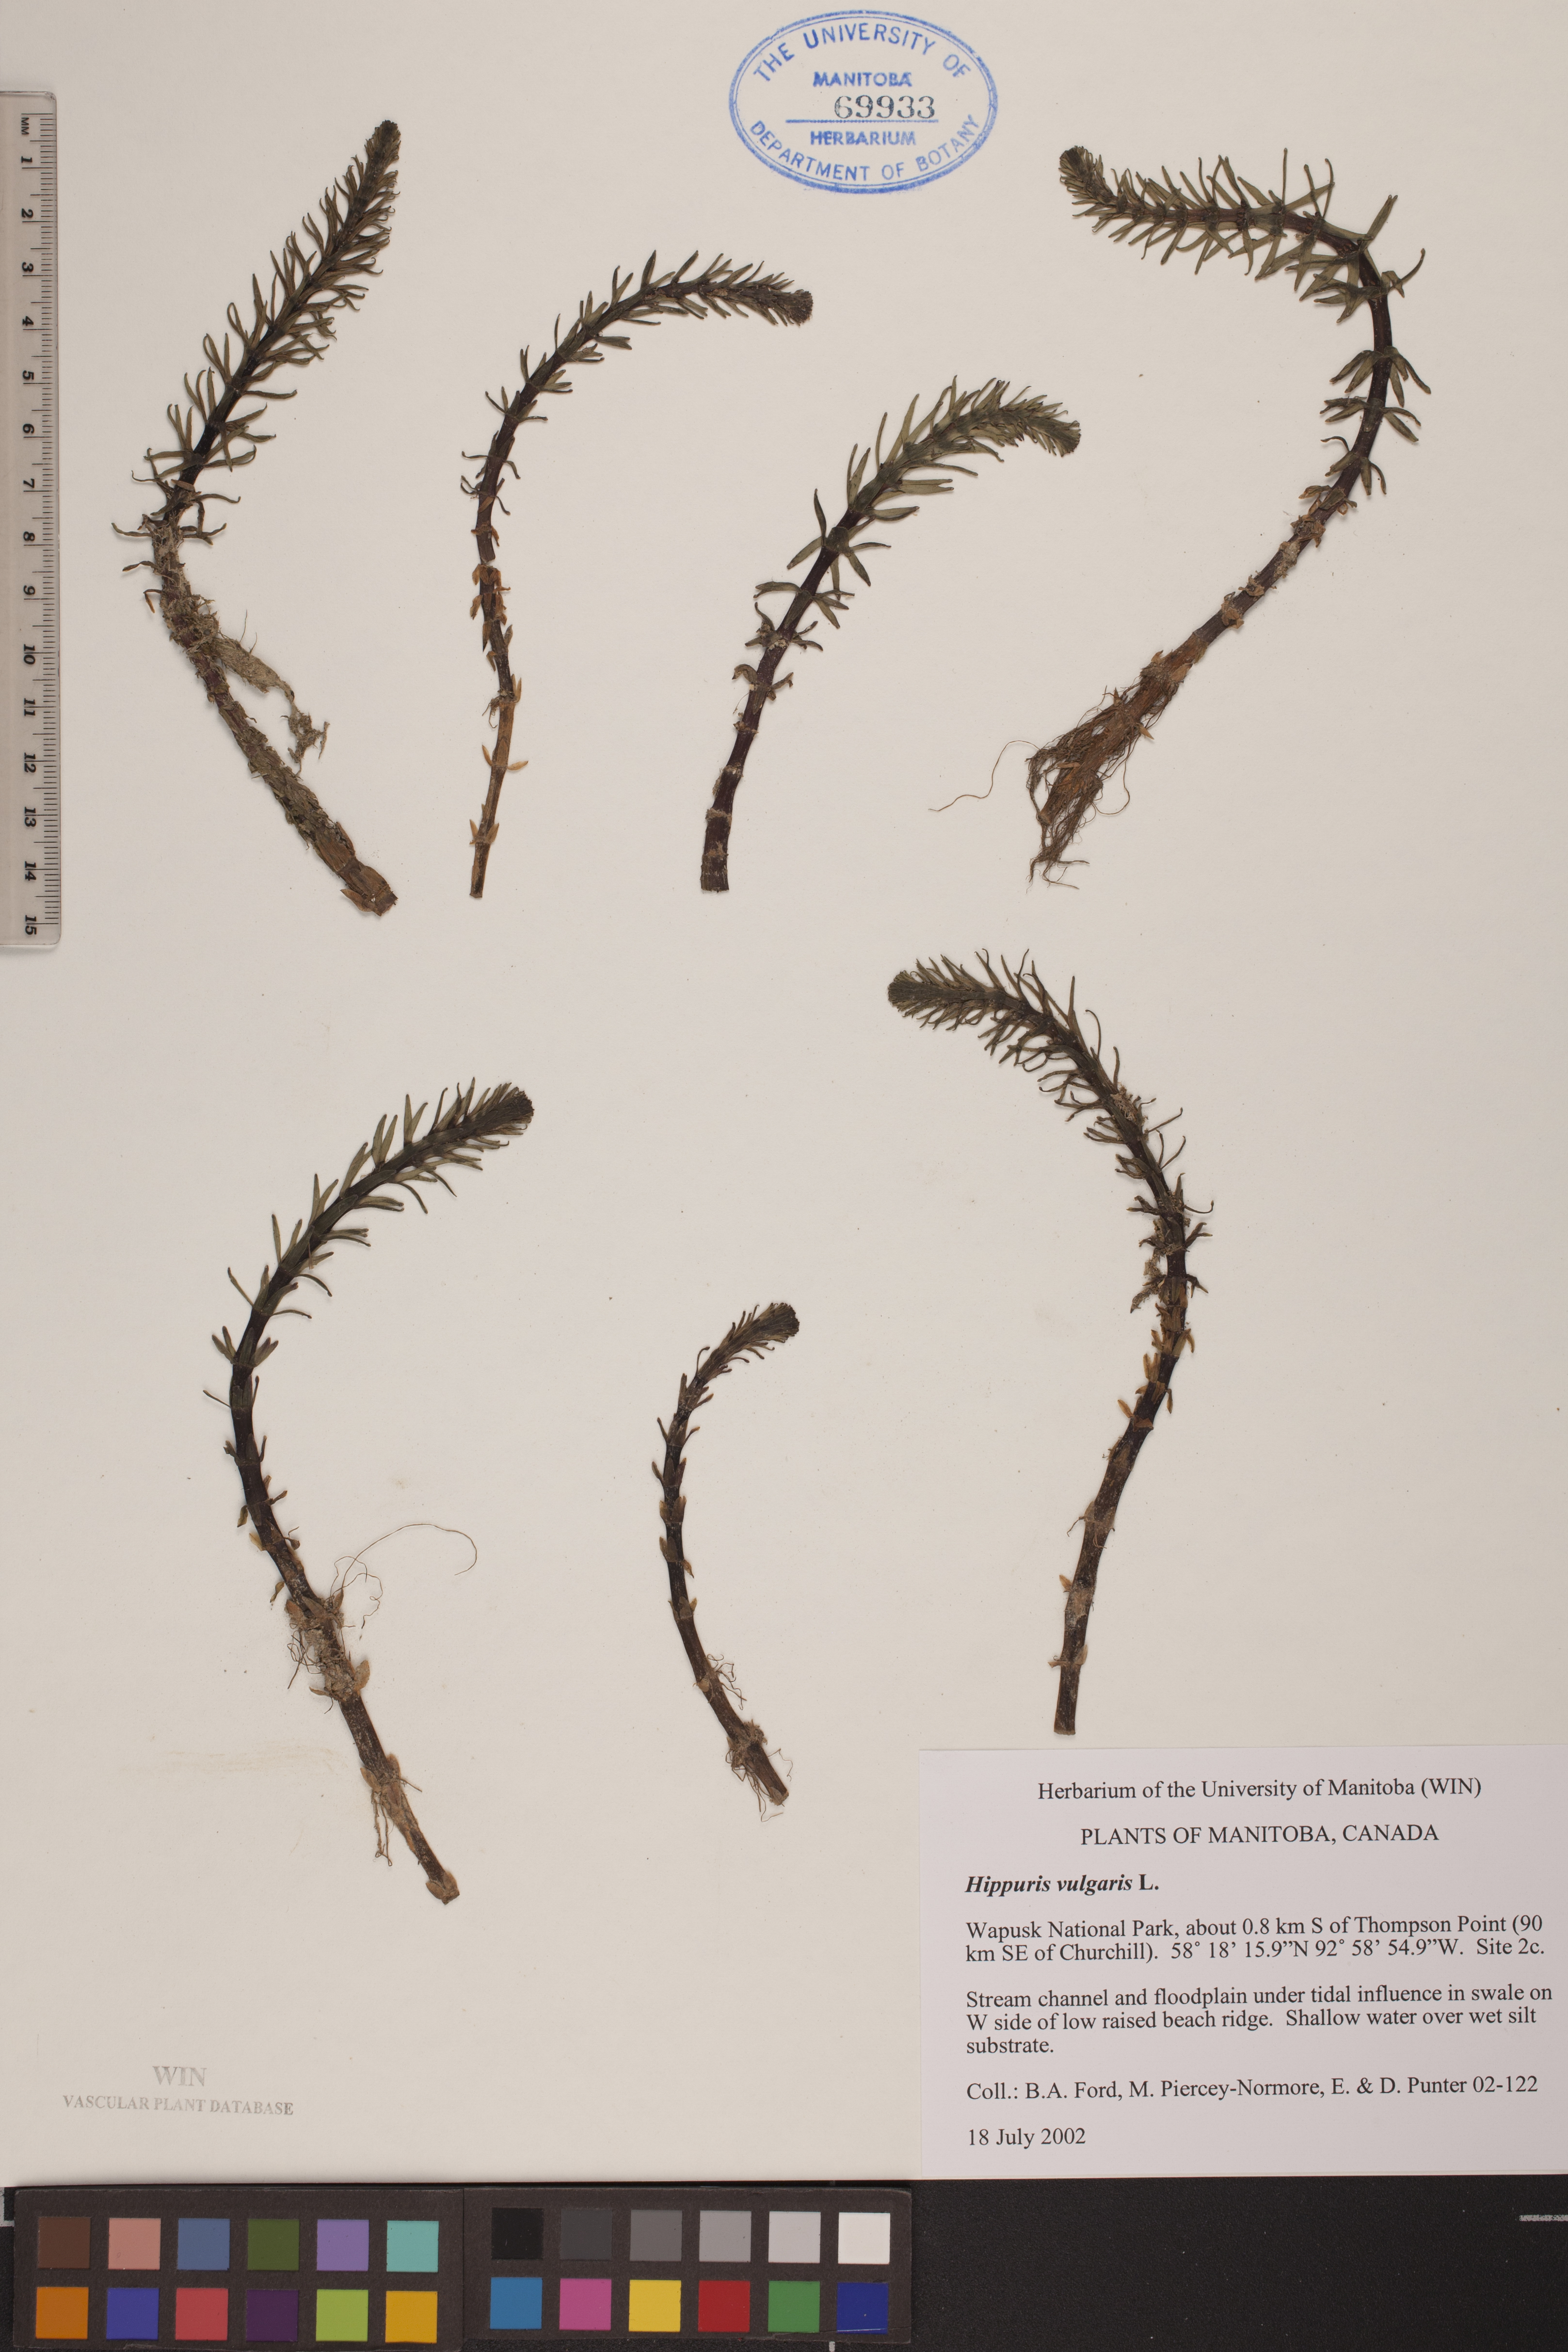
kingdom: Plantae
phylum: Tracheophyta
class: Magnoliopsida
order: Lamiales
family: Plantaginaceae
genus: Hippuris
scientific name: Hippuris vulgaris
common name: Mare's-tail
